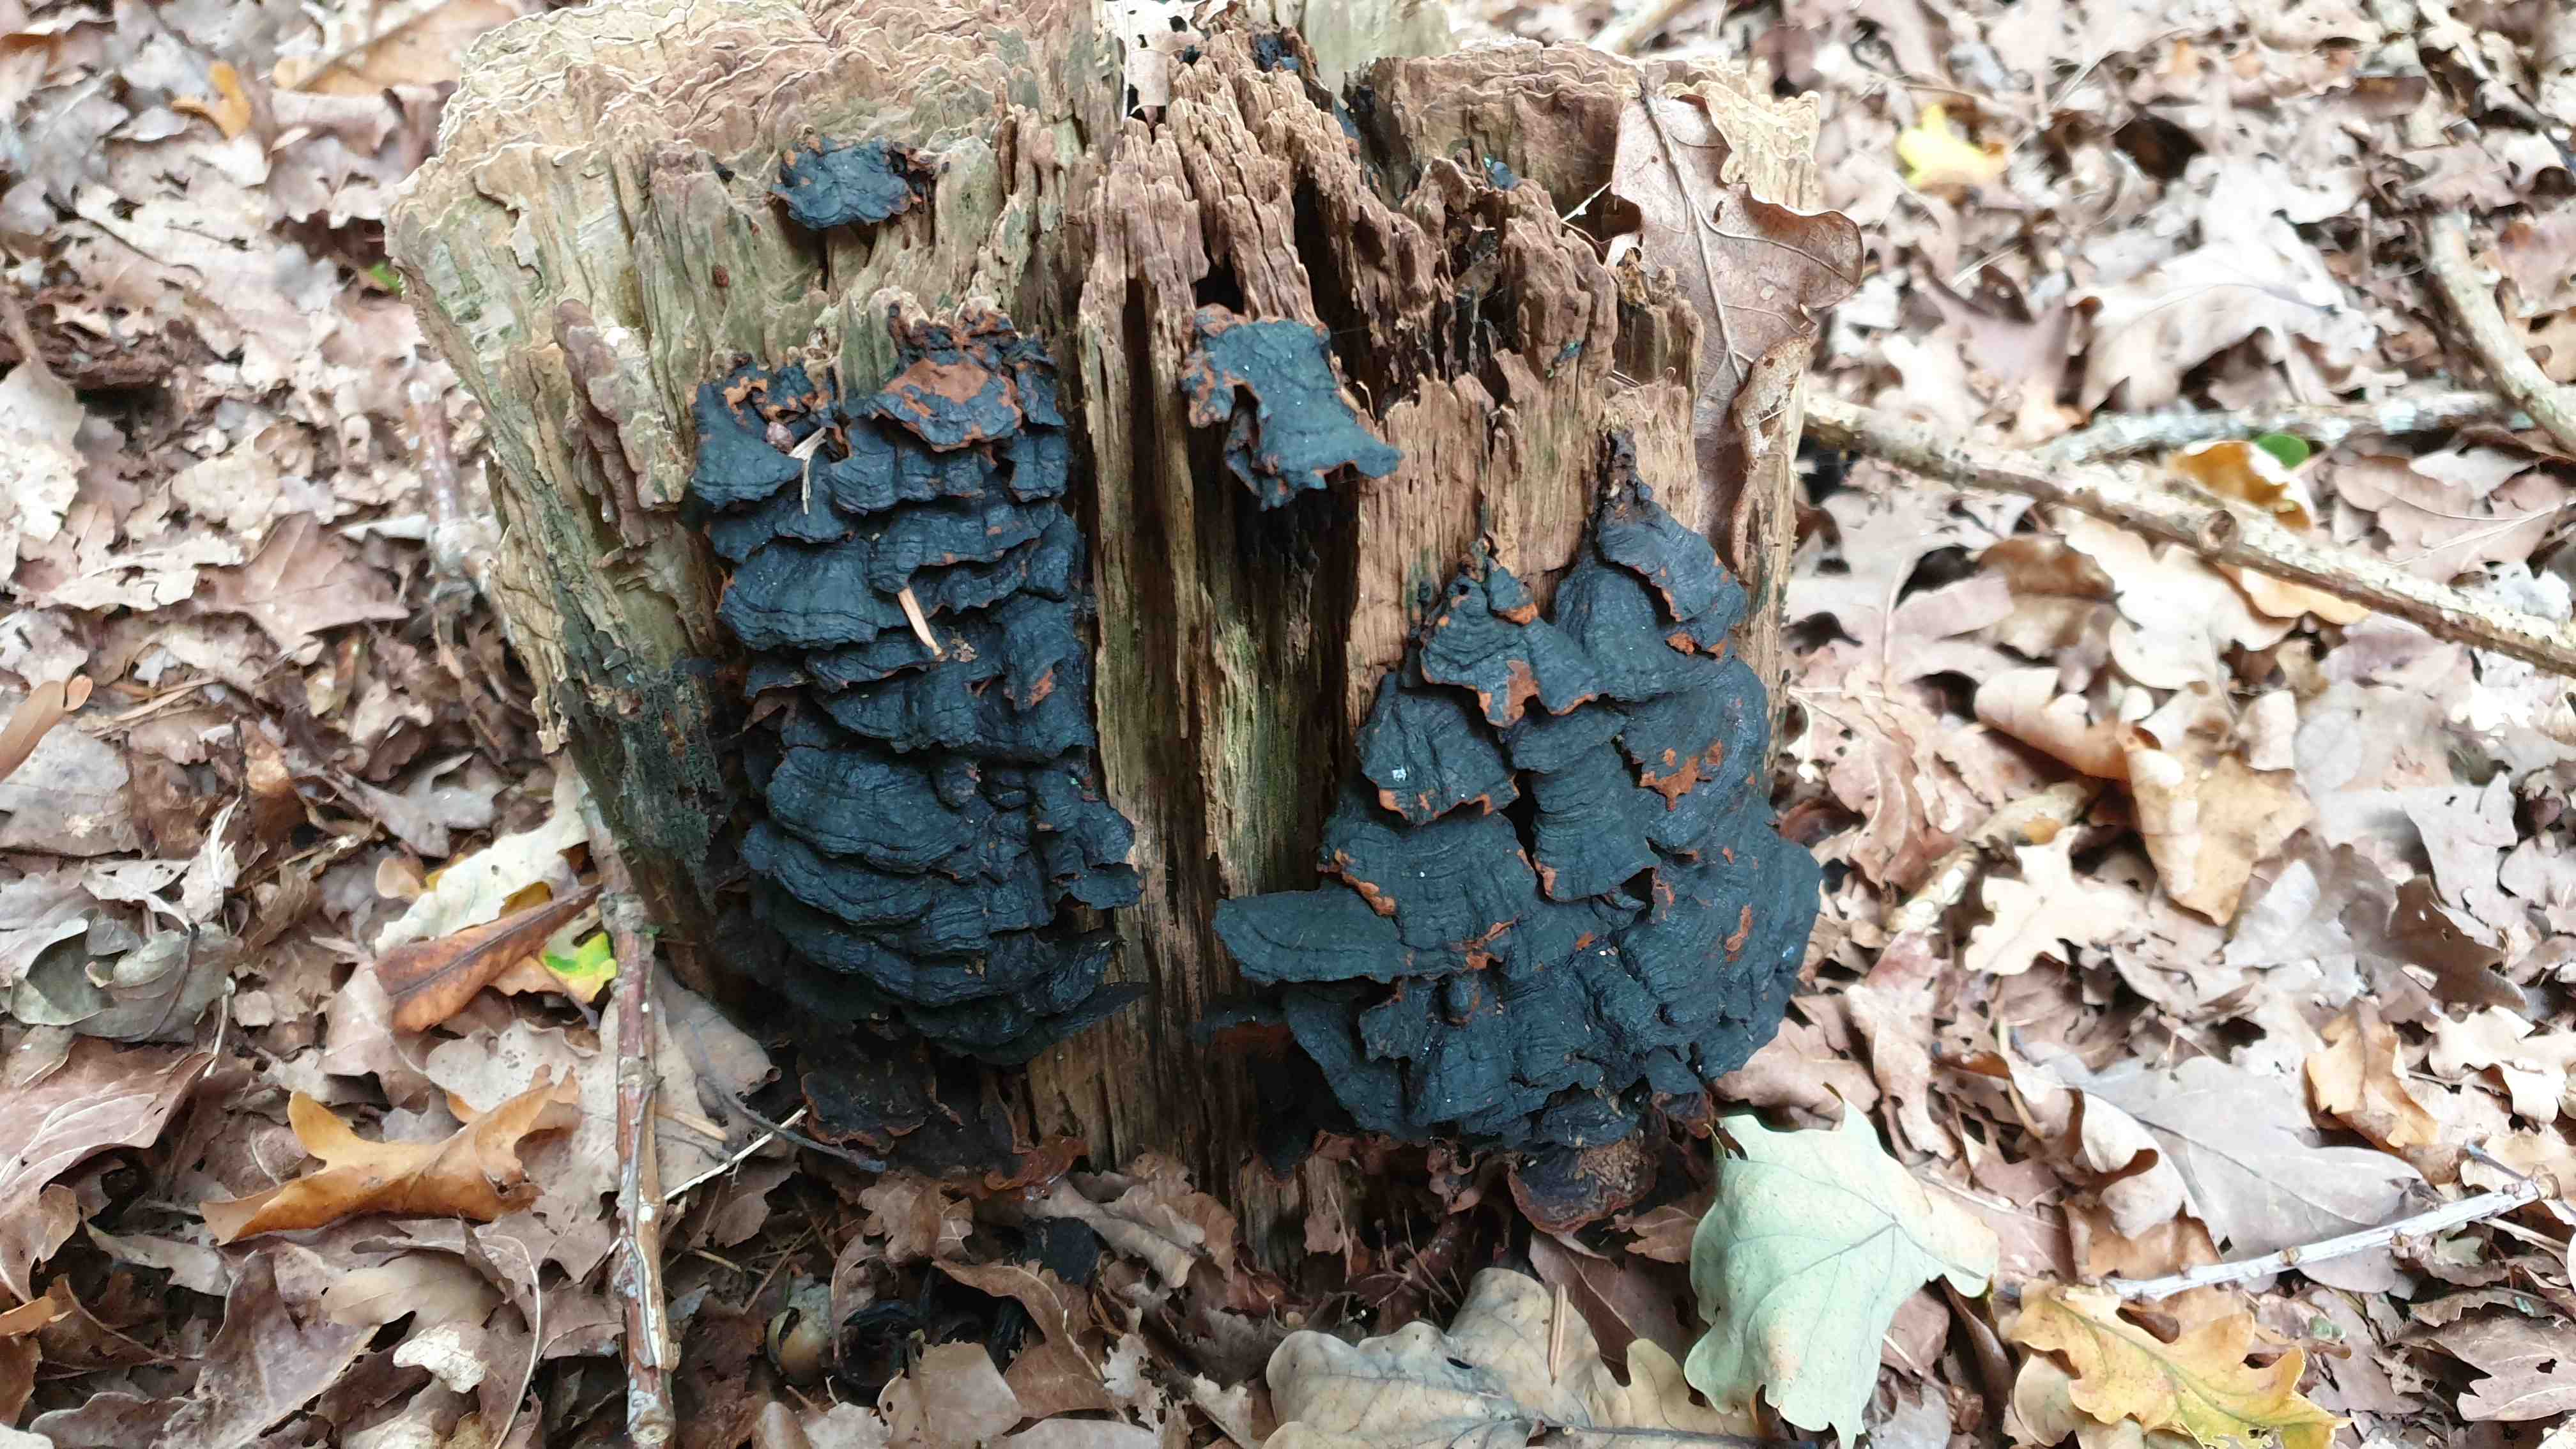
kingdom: Fungi
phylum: Basidiomycota
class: Agaricomycetes
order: Hymenochaetales
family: Hymenochaetaceae
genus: Hymenochaete
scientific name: Hymenochaete rubiginosa
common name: stiv ruslædersvamp
